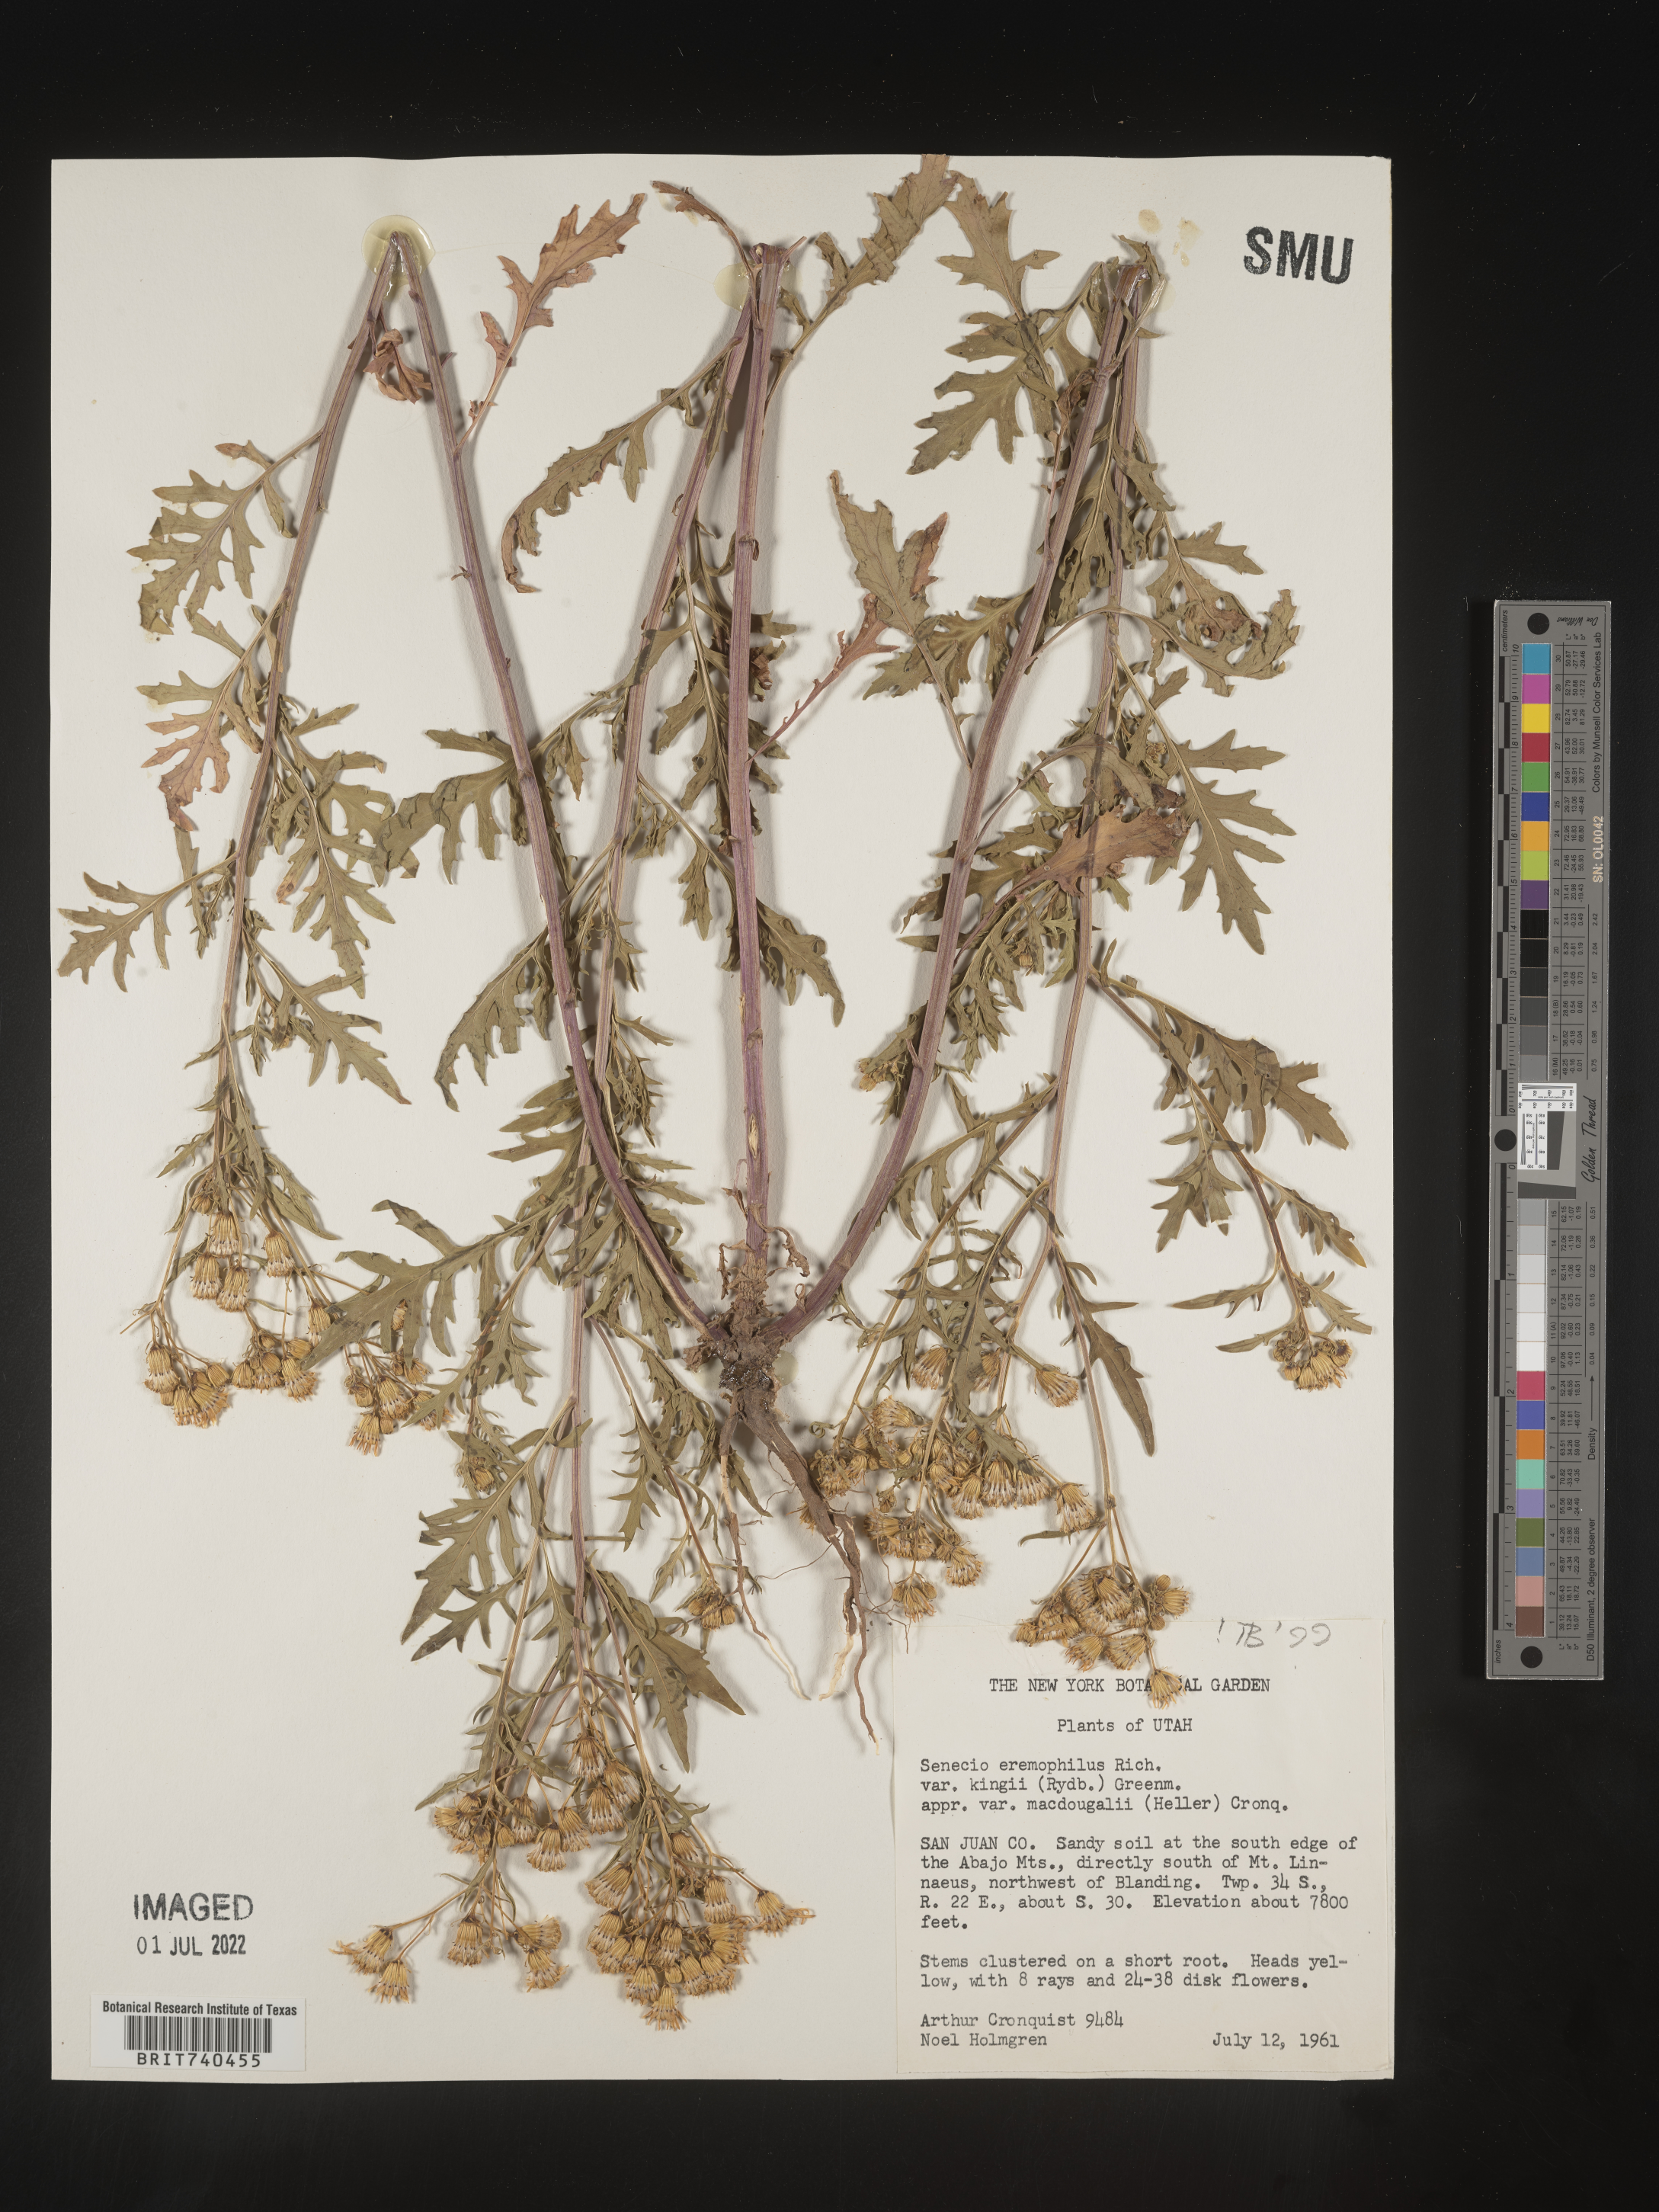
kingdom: Plantae
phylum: Tracheophyta
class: Magnoliopsida
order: Asterales
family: Asteraceae
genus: Senecio
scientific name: Senecio eremophilus
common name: Desert ragwort
